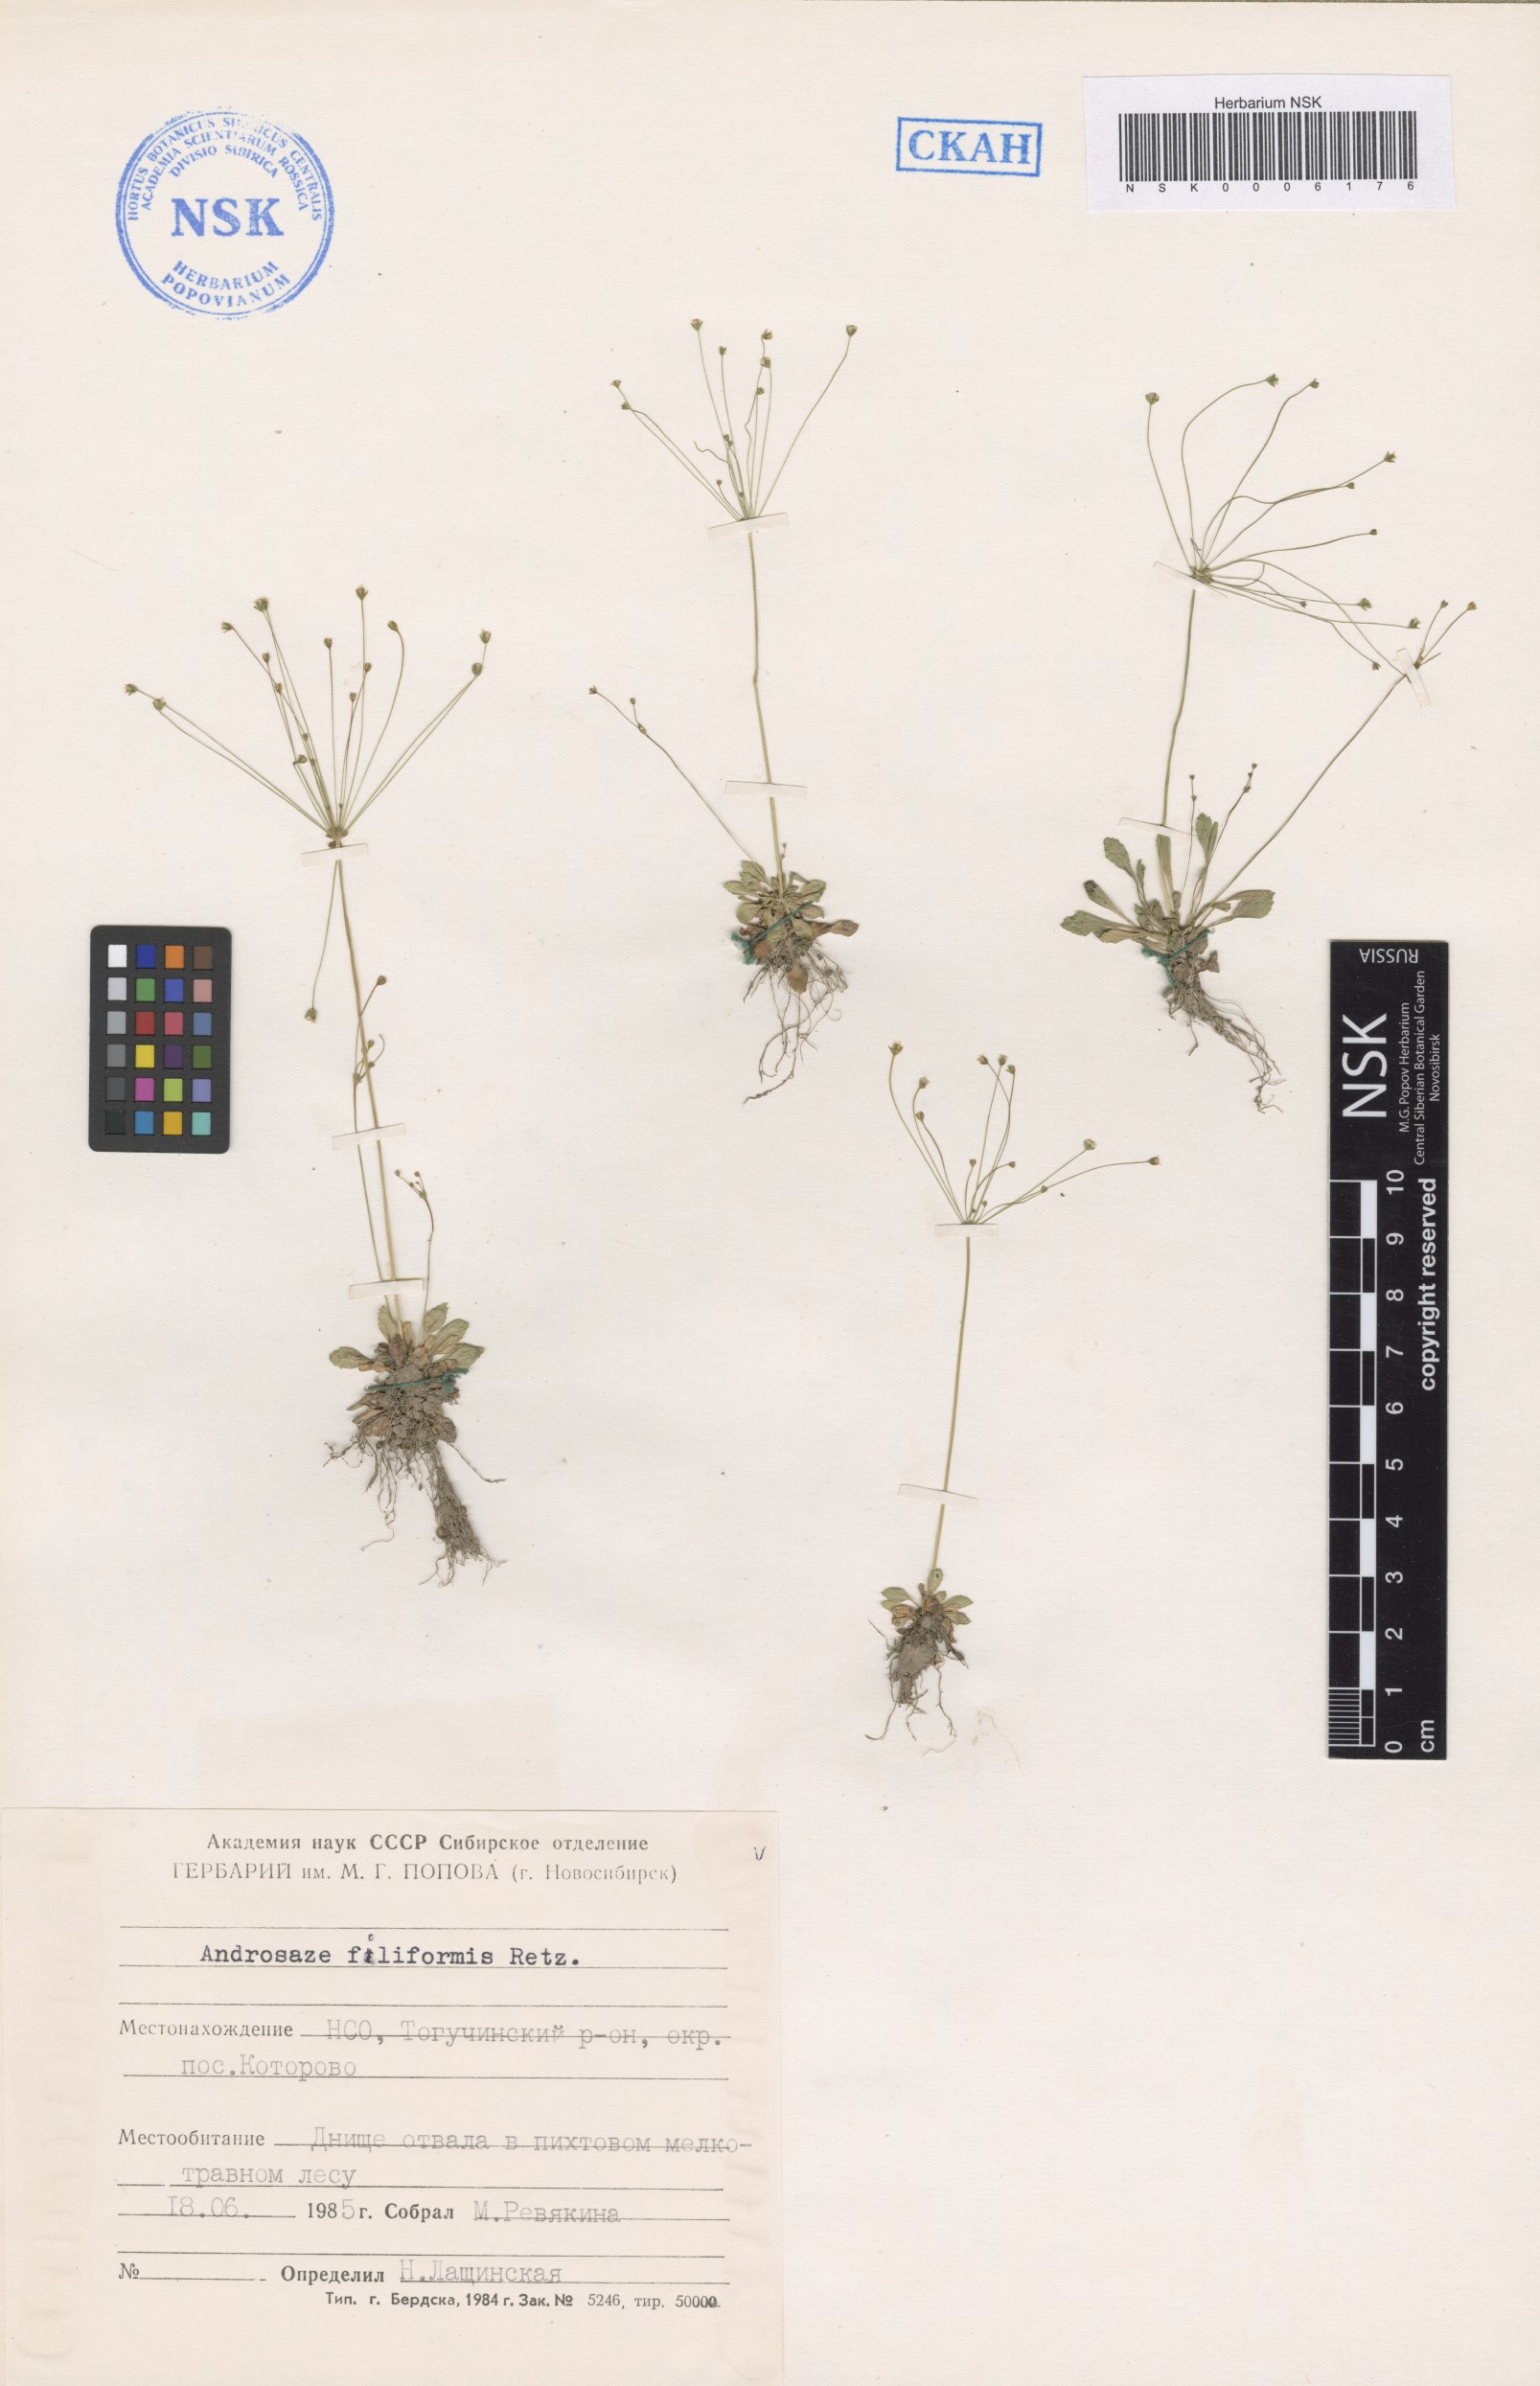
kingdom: Plantae
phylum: Tracheophyta
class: Magnoliopsida
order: Ericales
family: Primulaceae
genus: Androsace
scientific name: Androsace filiformis
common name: Filiform rock jasmine
